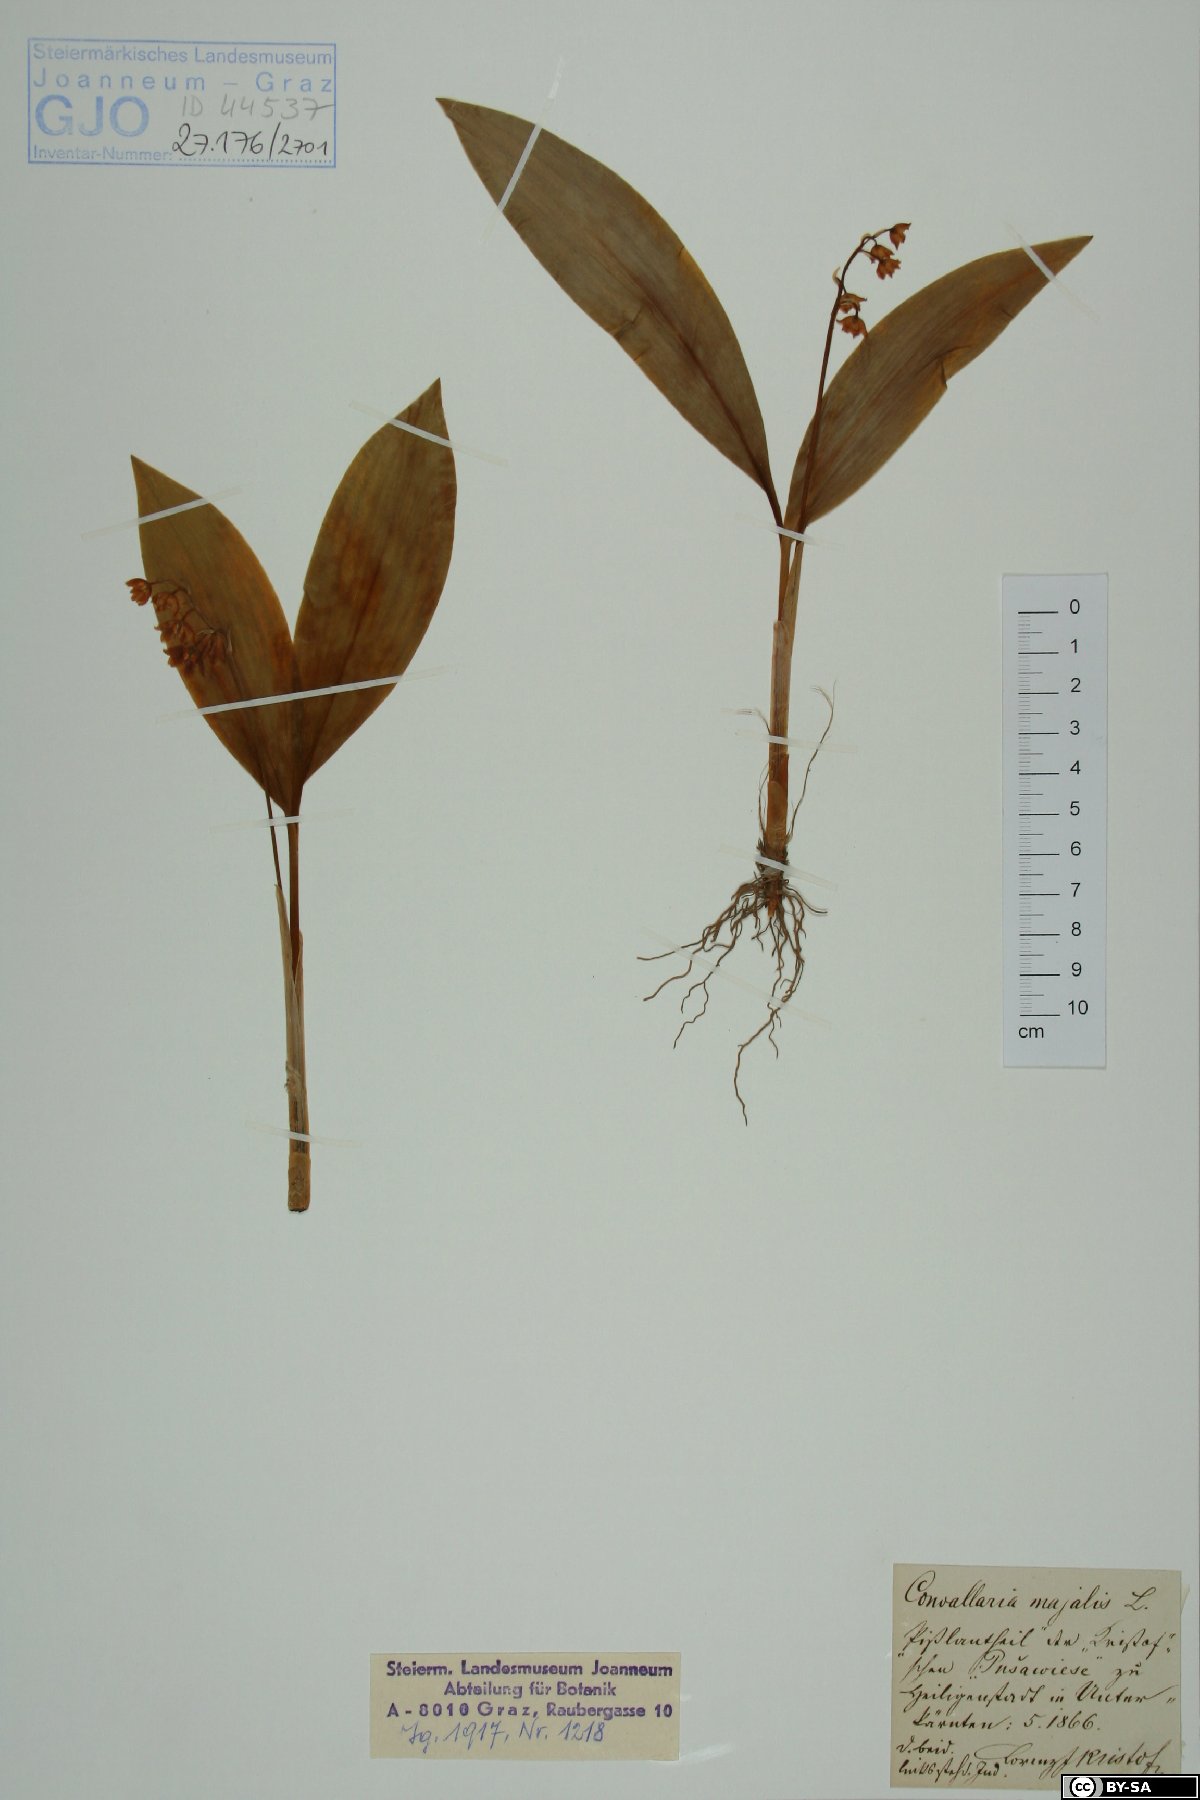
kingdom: Plantae
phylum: Tracheophyta
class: Liliopsida
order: Asparagales
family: Asparagaceae
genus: Convallaria
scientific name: Convallaria majalis
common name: Lily-of-the-valley
